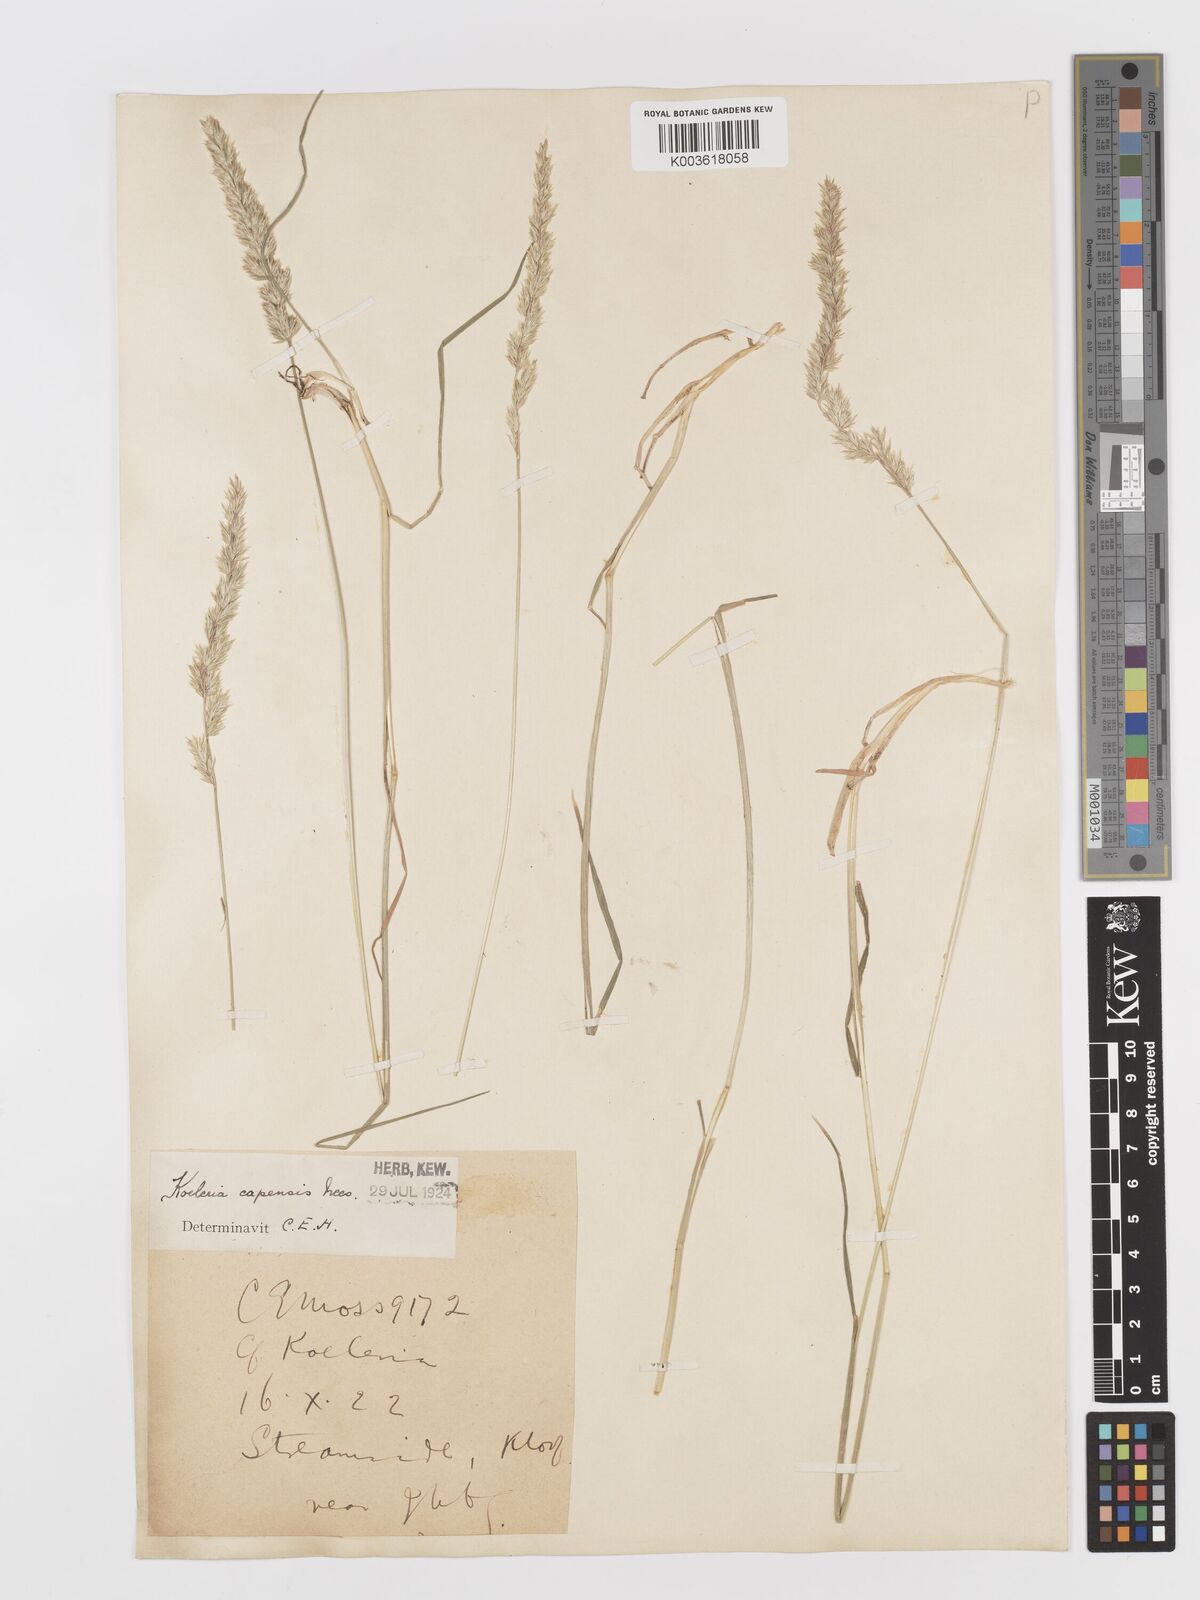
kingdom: Plantae
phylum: Tracheophyta
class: Liliopsida
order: Poales
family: Poaceae
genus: Koeleria
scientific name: Koeleria capensis
